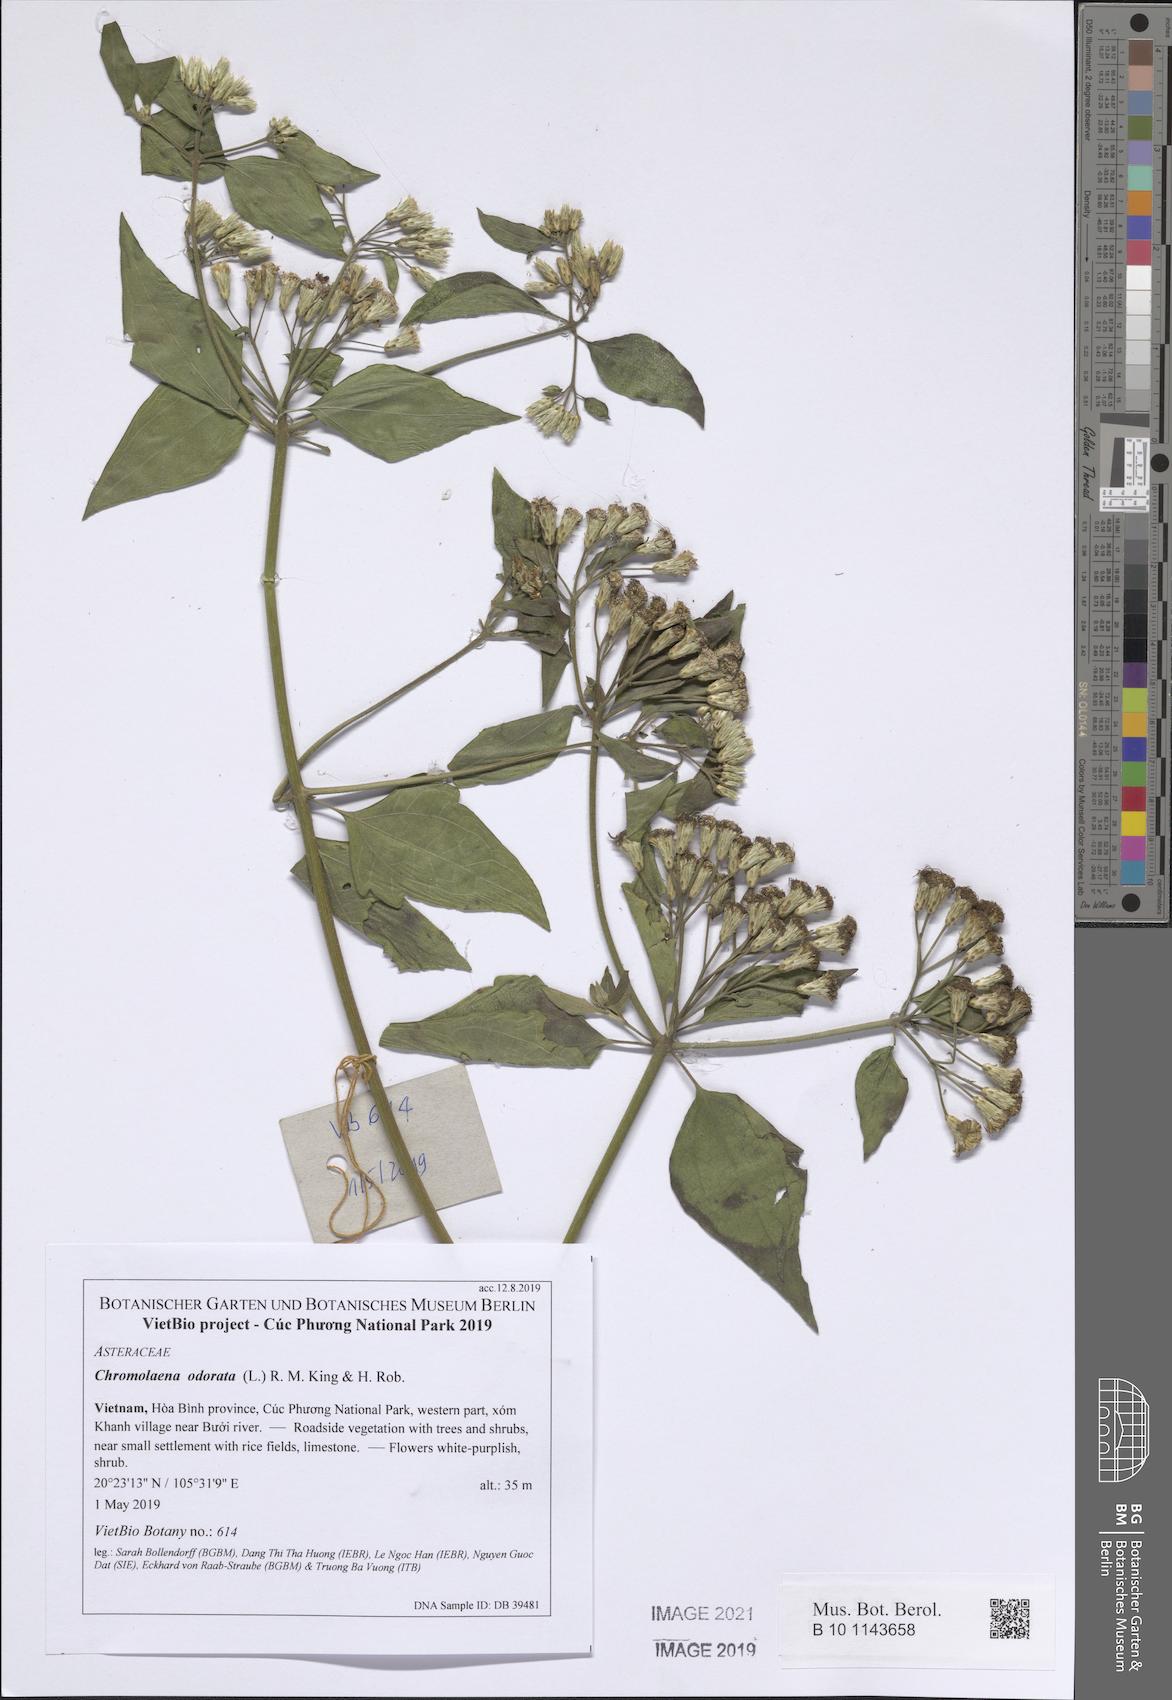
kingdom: Plantae
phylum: Tracheophyta
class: Magnoliopsida
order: Asterales
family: Asteraceae
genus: Chromolaena
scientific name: Chromolaena odorata
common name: Siamweed
